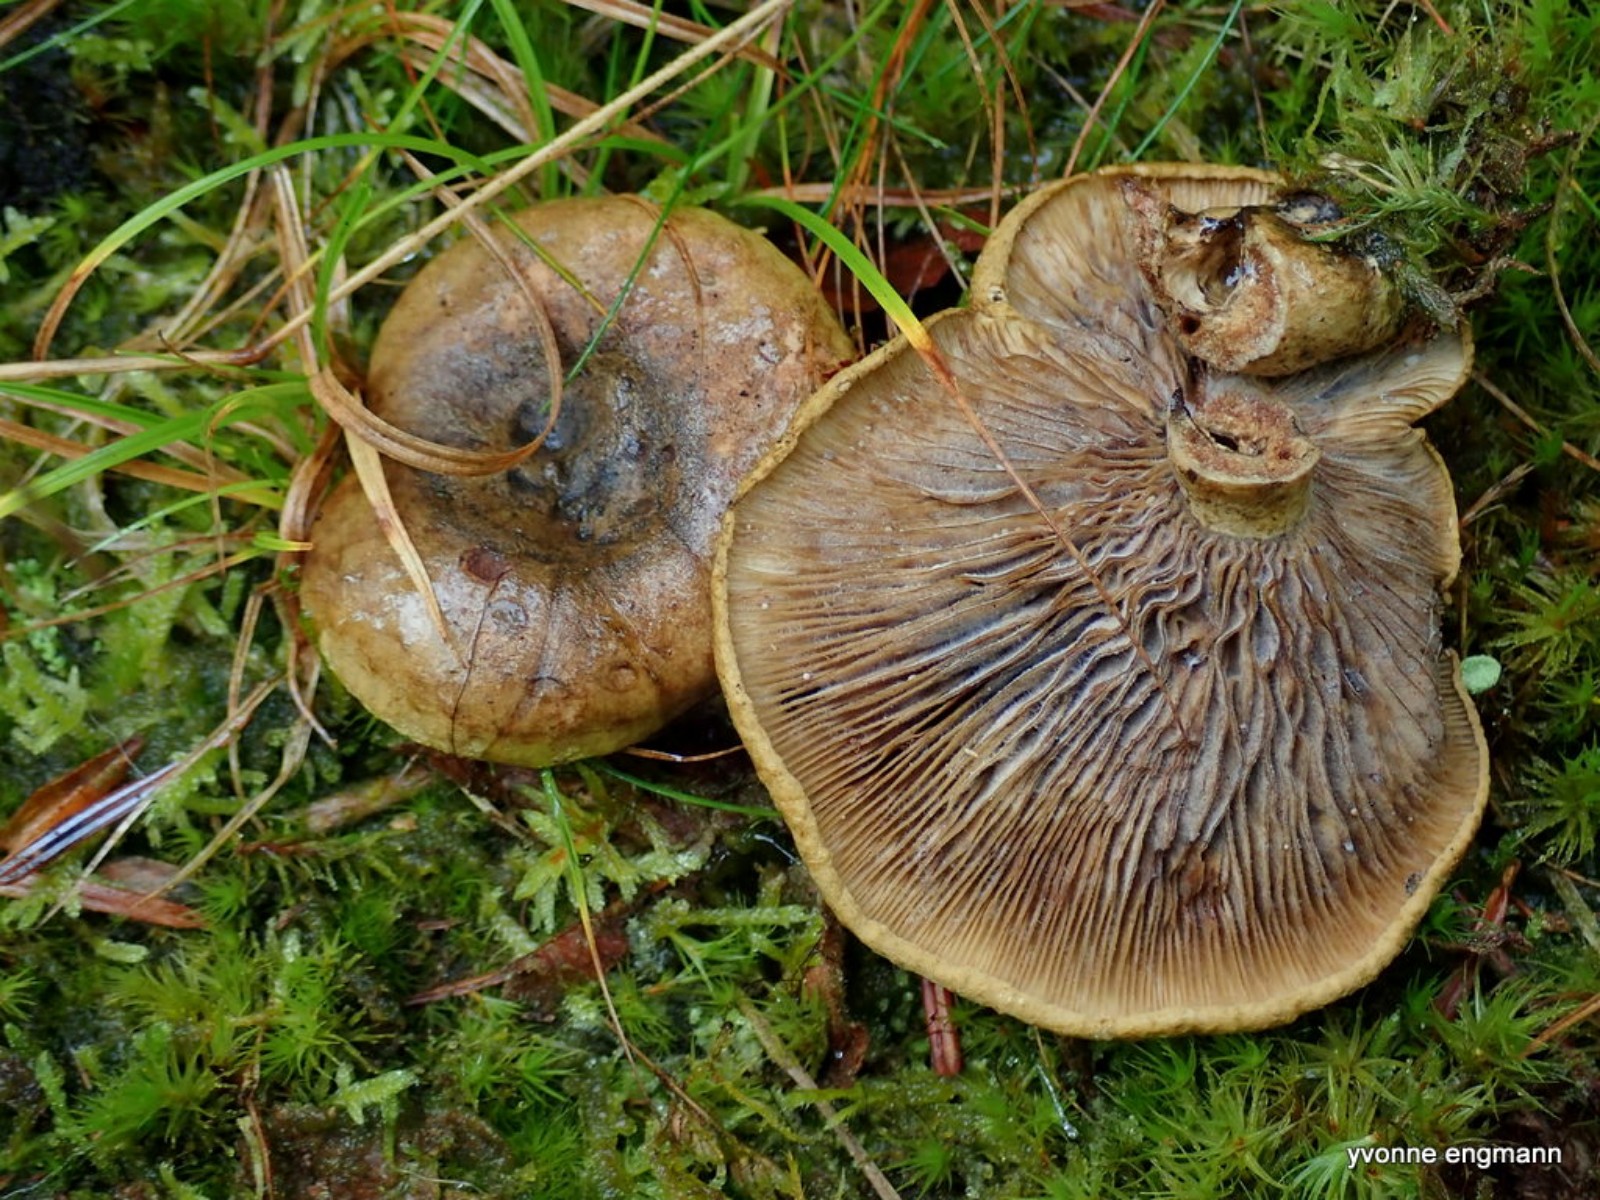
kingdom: Fungi
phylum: Basidiomycota
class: Agaricomycetes
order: Russulales
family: Russulaceae
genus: Lactarius
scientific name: Lactarius necator
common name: manddraber-mælkehat
